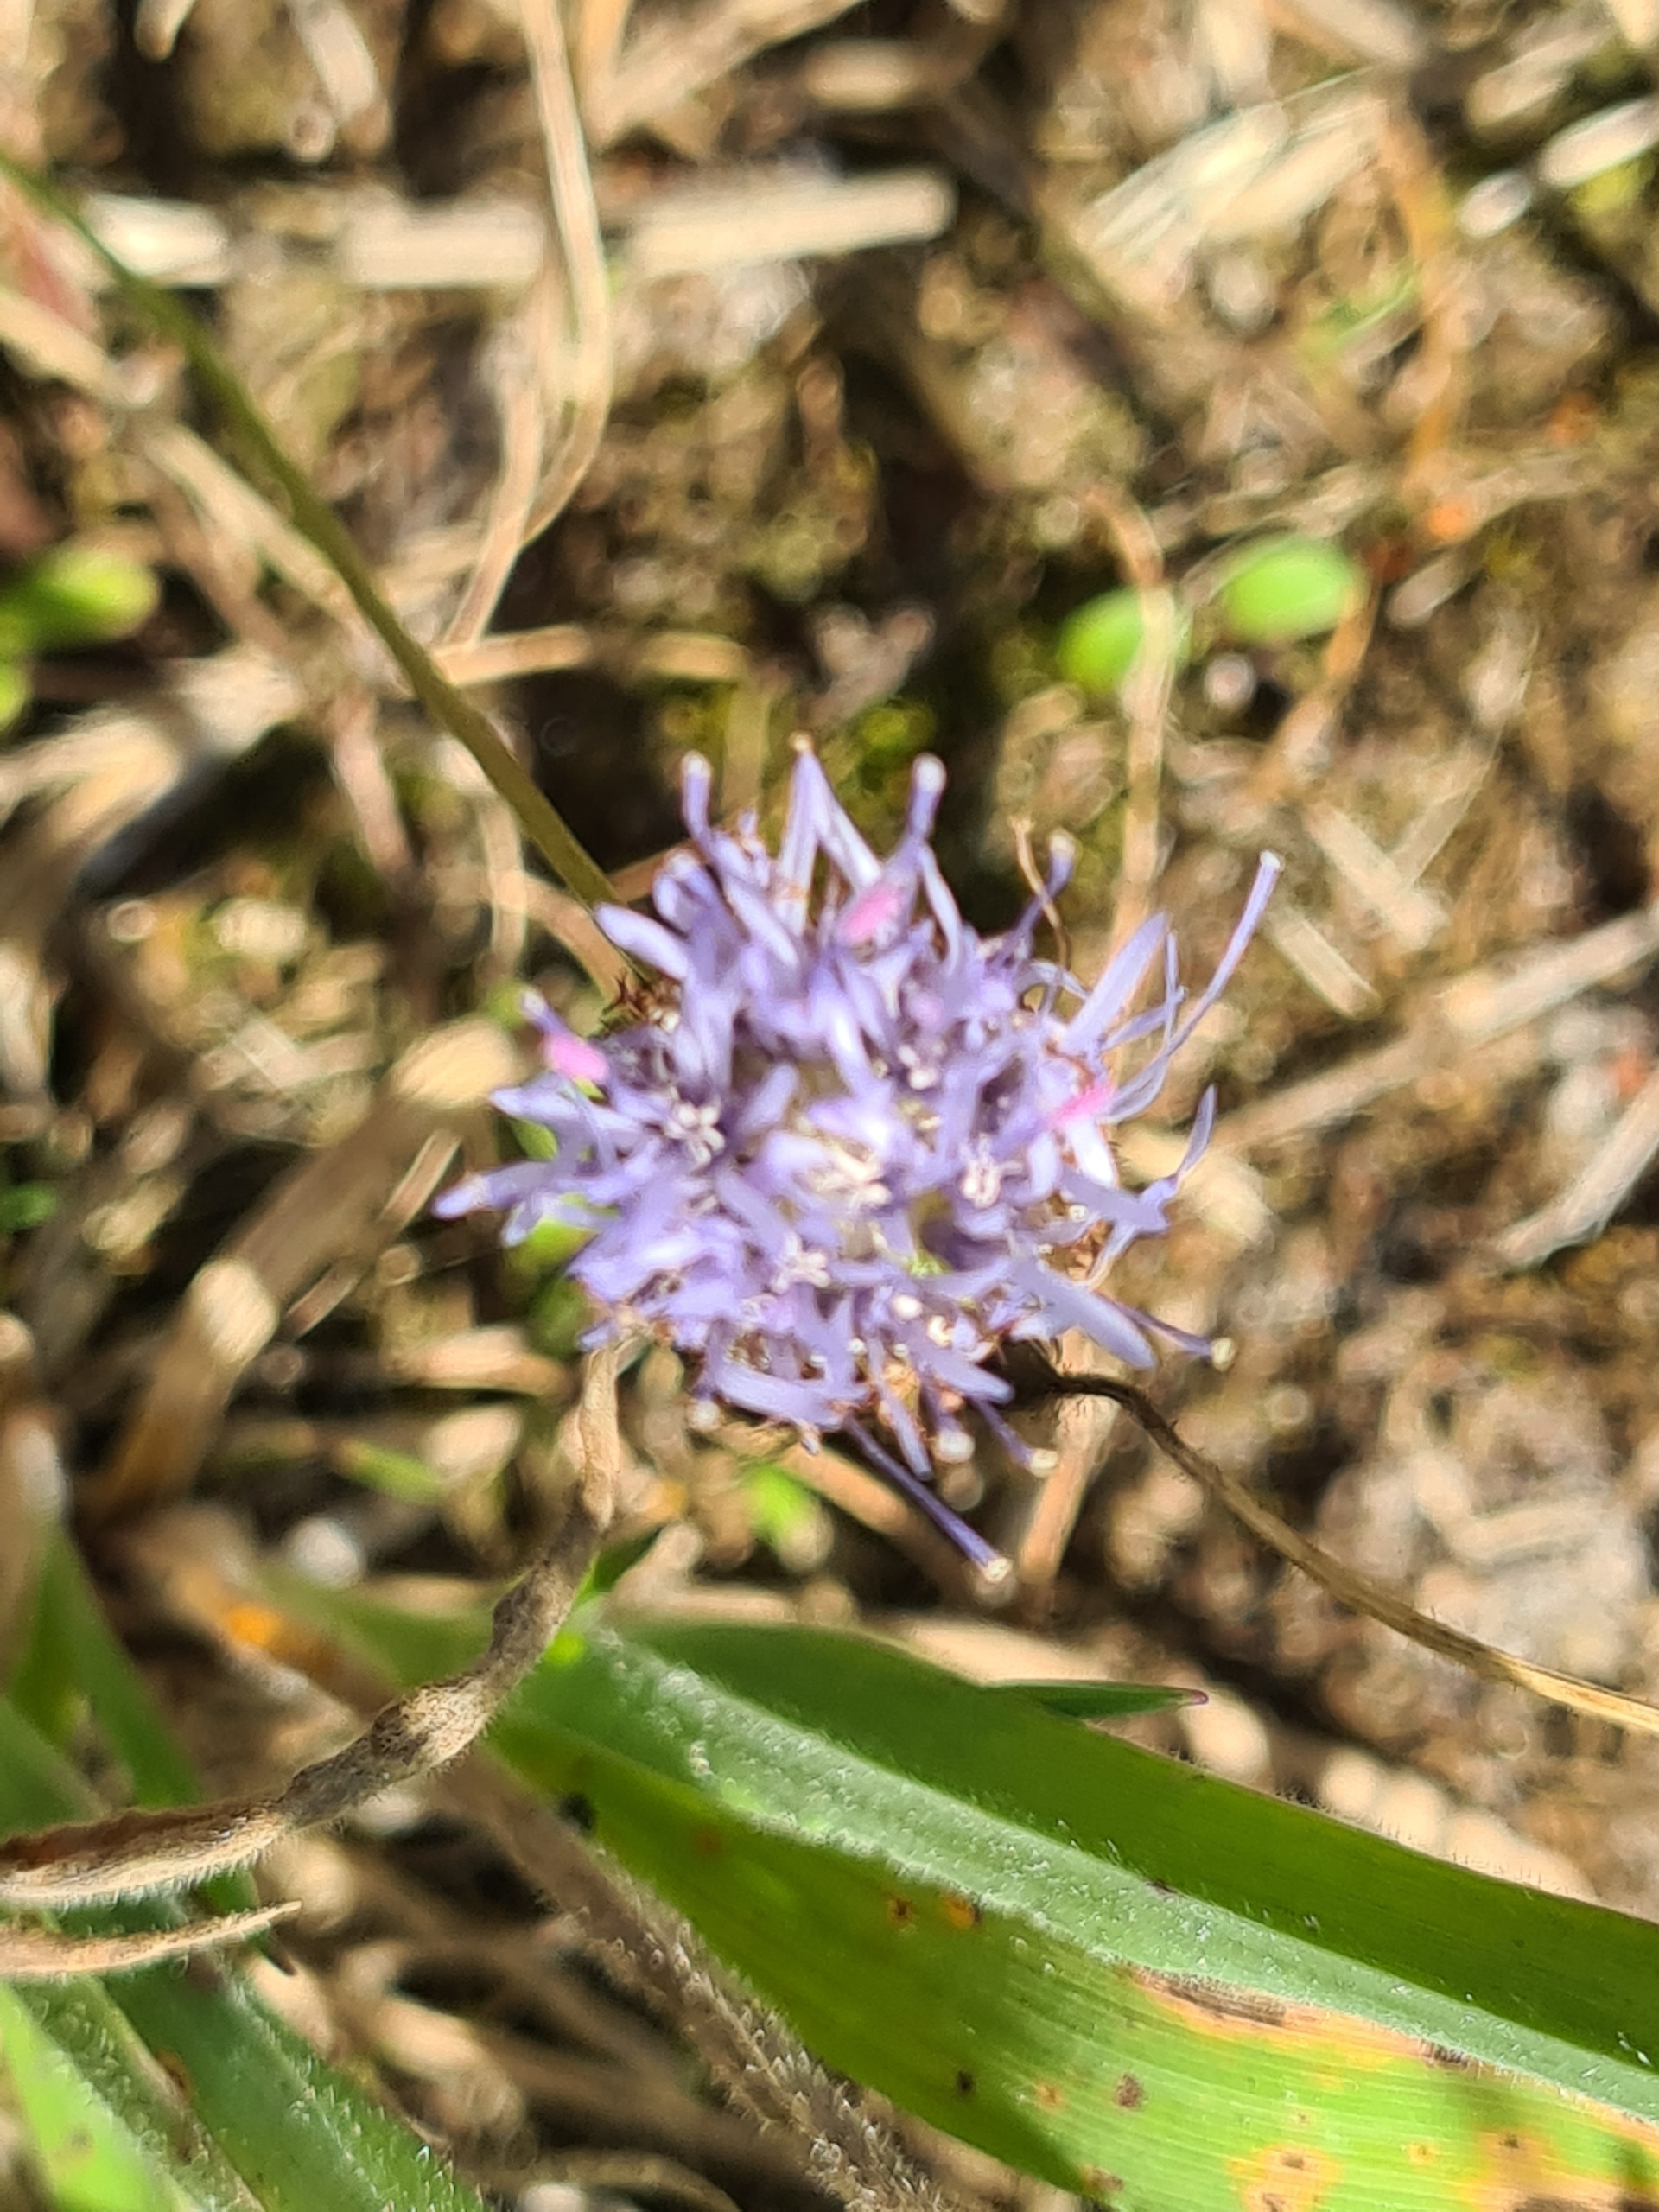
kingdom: Plantae
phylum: Tracheophyta
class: Magnoliopsida
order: Asterales
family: Campanulaceae
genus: Jasione
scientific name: Jasione montana
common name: Blåmunke
